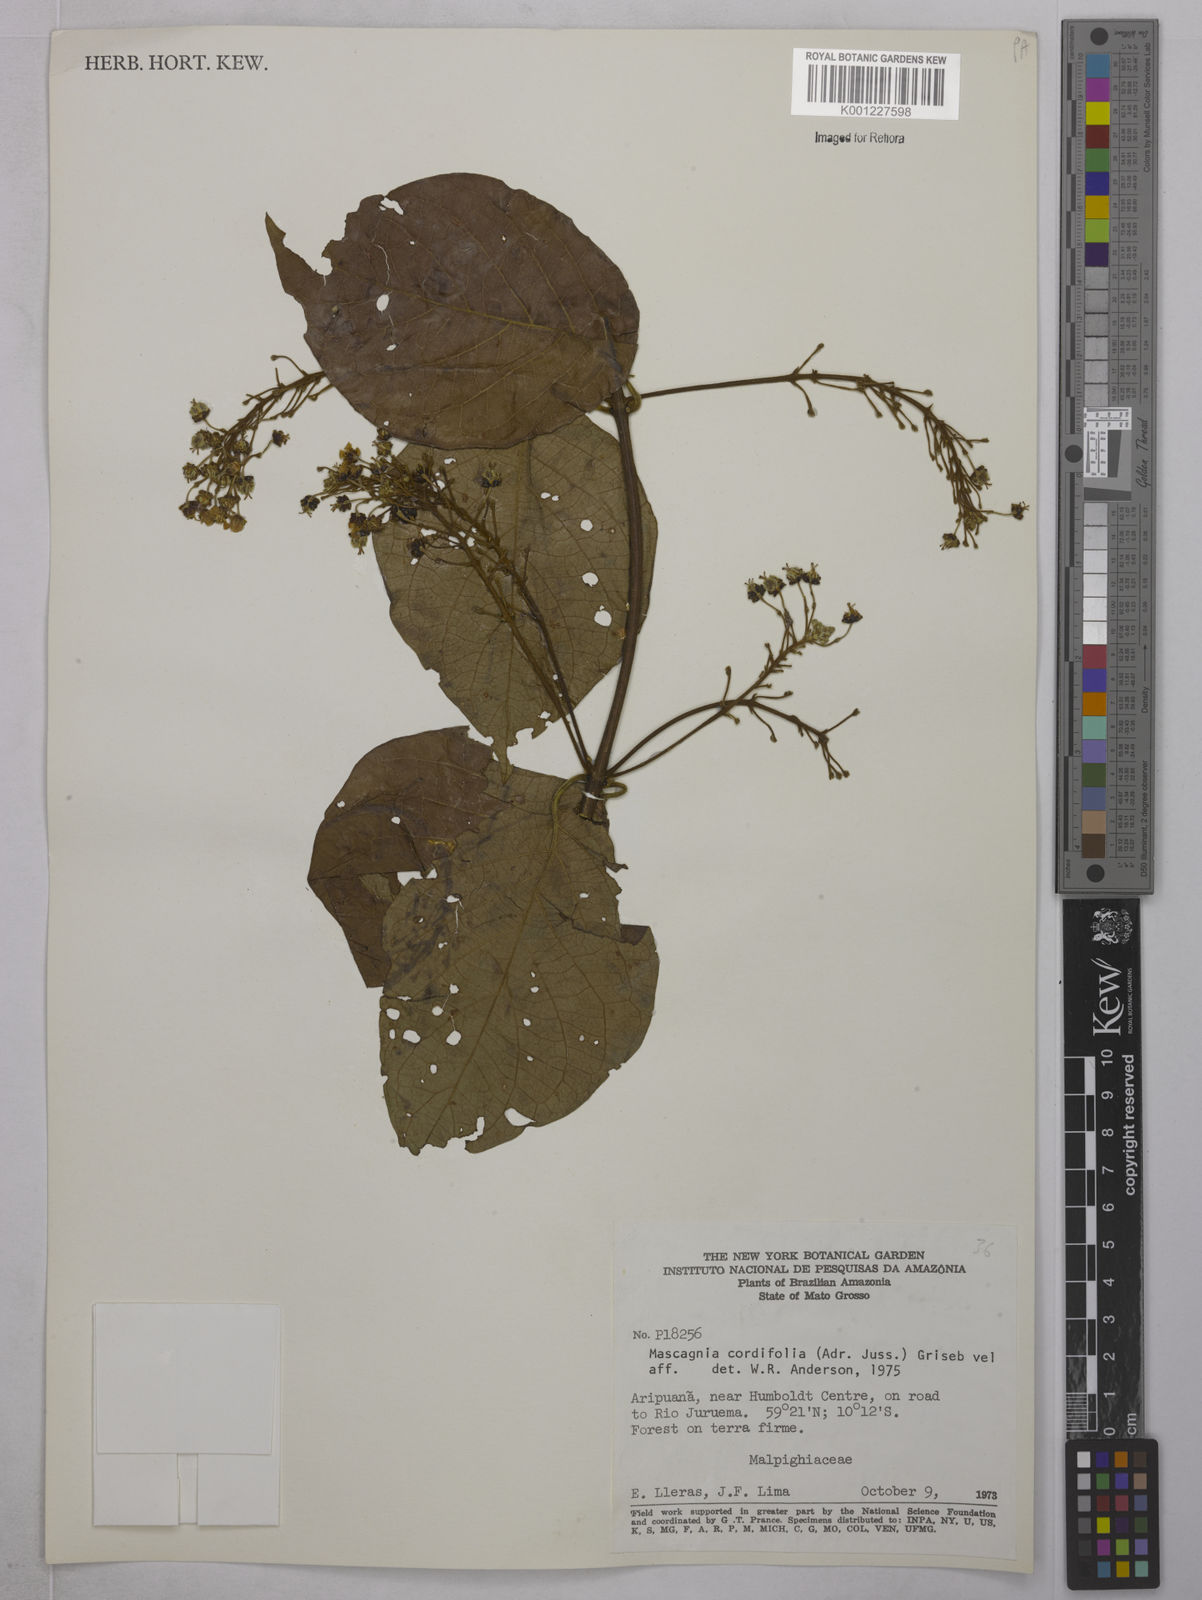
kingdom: Plantae
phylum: Tracheophyta
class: Magnoliopsida
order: Malpighiales
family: Malpighiaceae
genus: Mascagnia
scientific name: Mascagnia cordifolia
